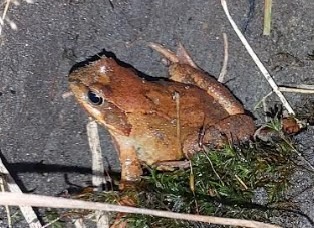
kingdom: Animalia
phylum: Chordata
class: Amphibia
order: Anura
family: Ranidae
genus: Rana
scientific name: Rana temporaria
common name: Butsnudet frø
